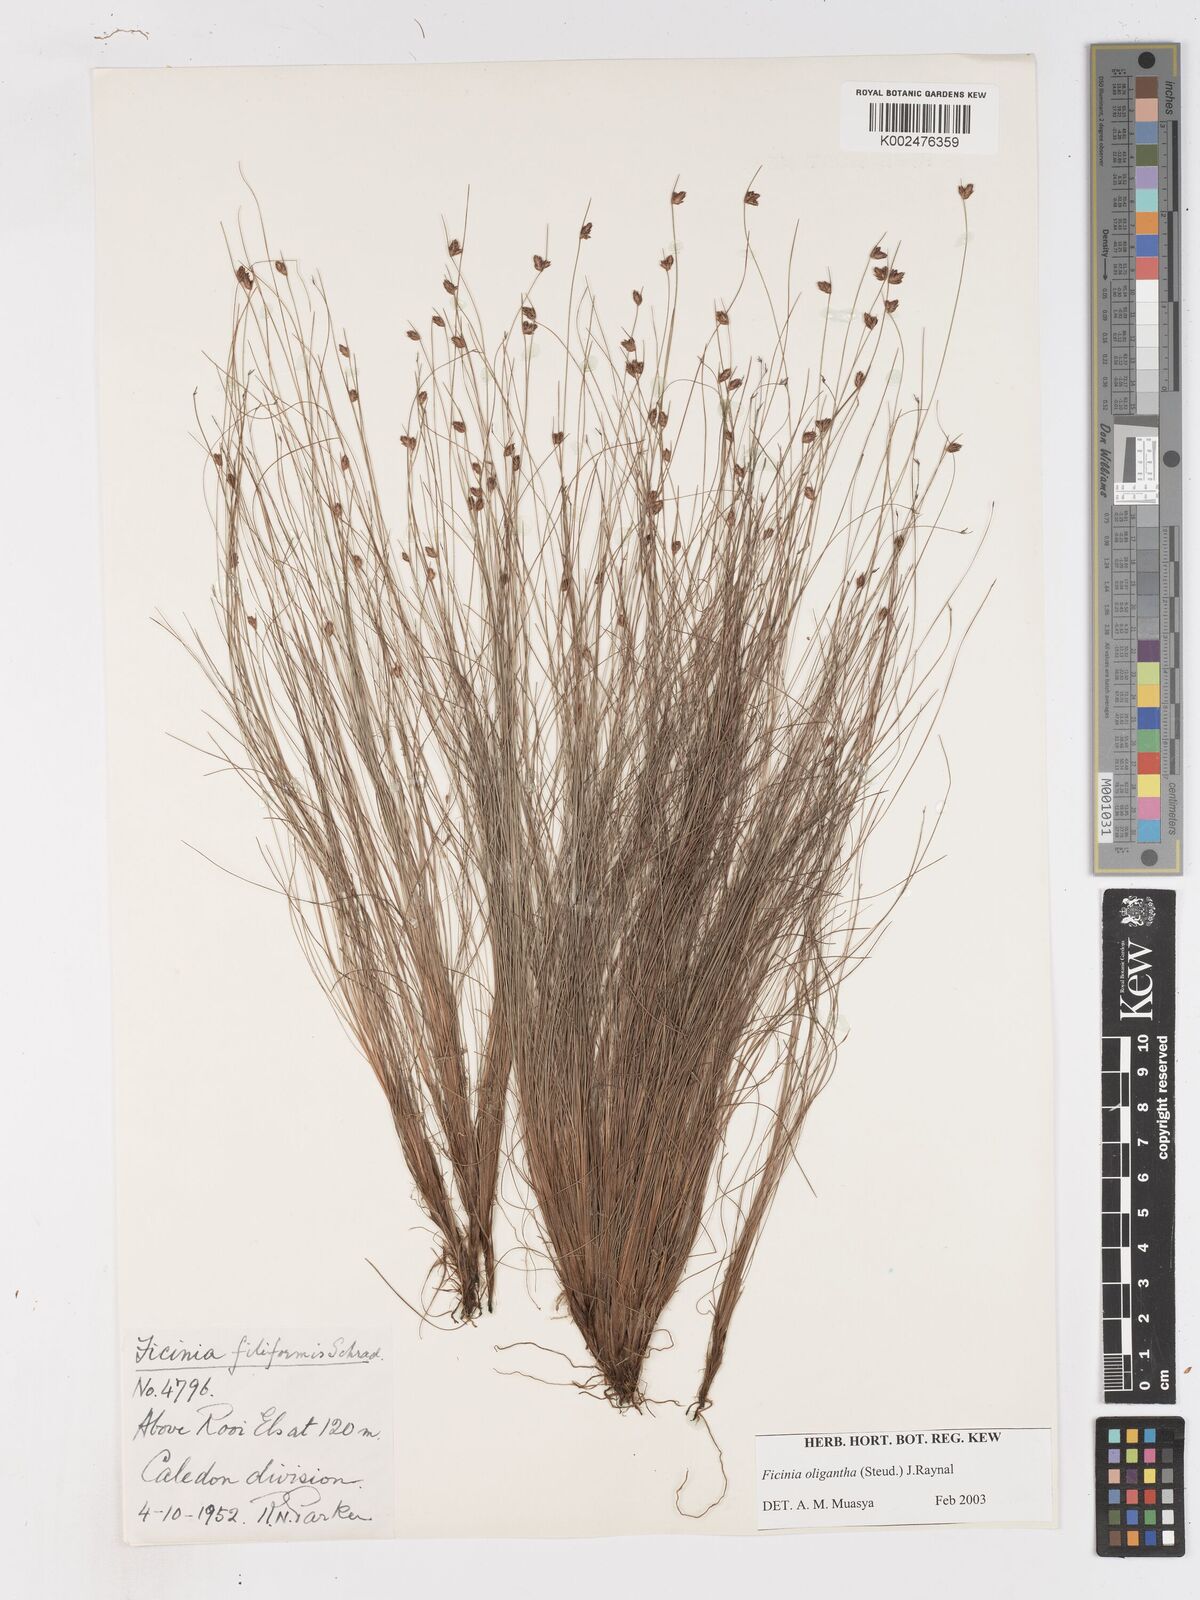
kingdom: Plantae
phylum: Tracheophyta
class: Liliopsida
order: Poales
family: Cyperaceae
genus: Ficinia
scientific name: Ficinia oligantha
